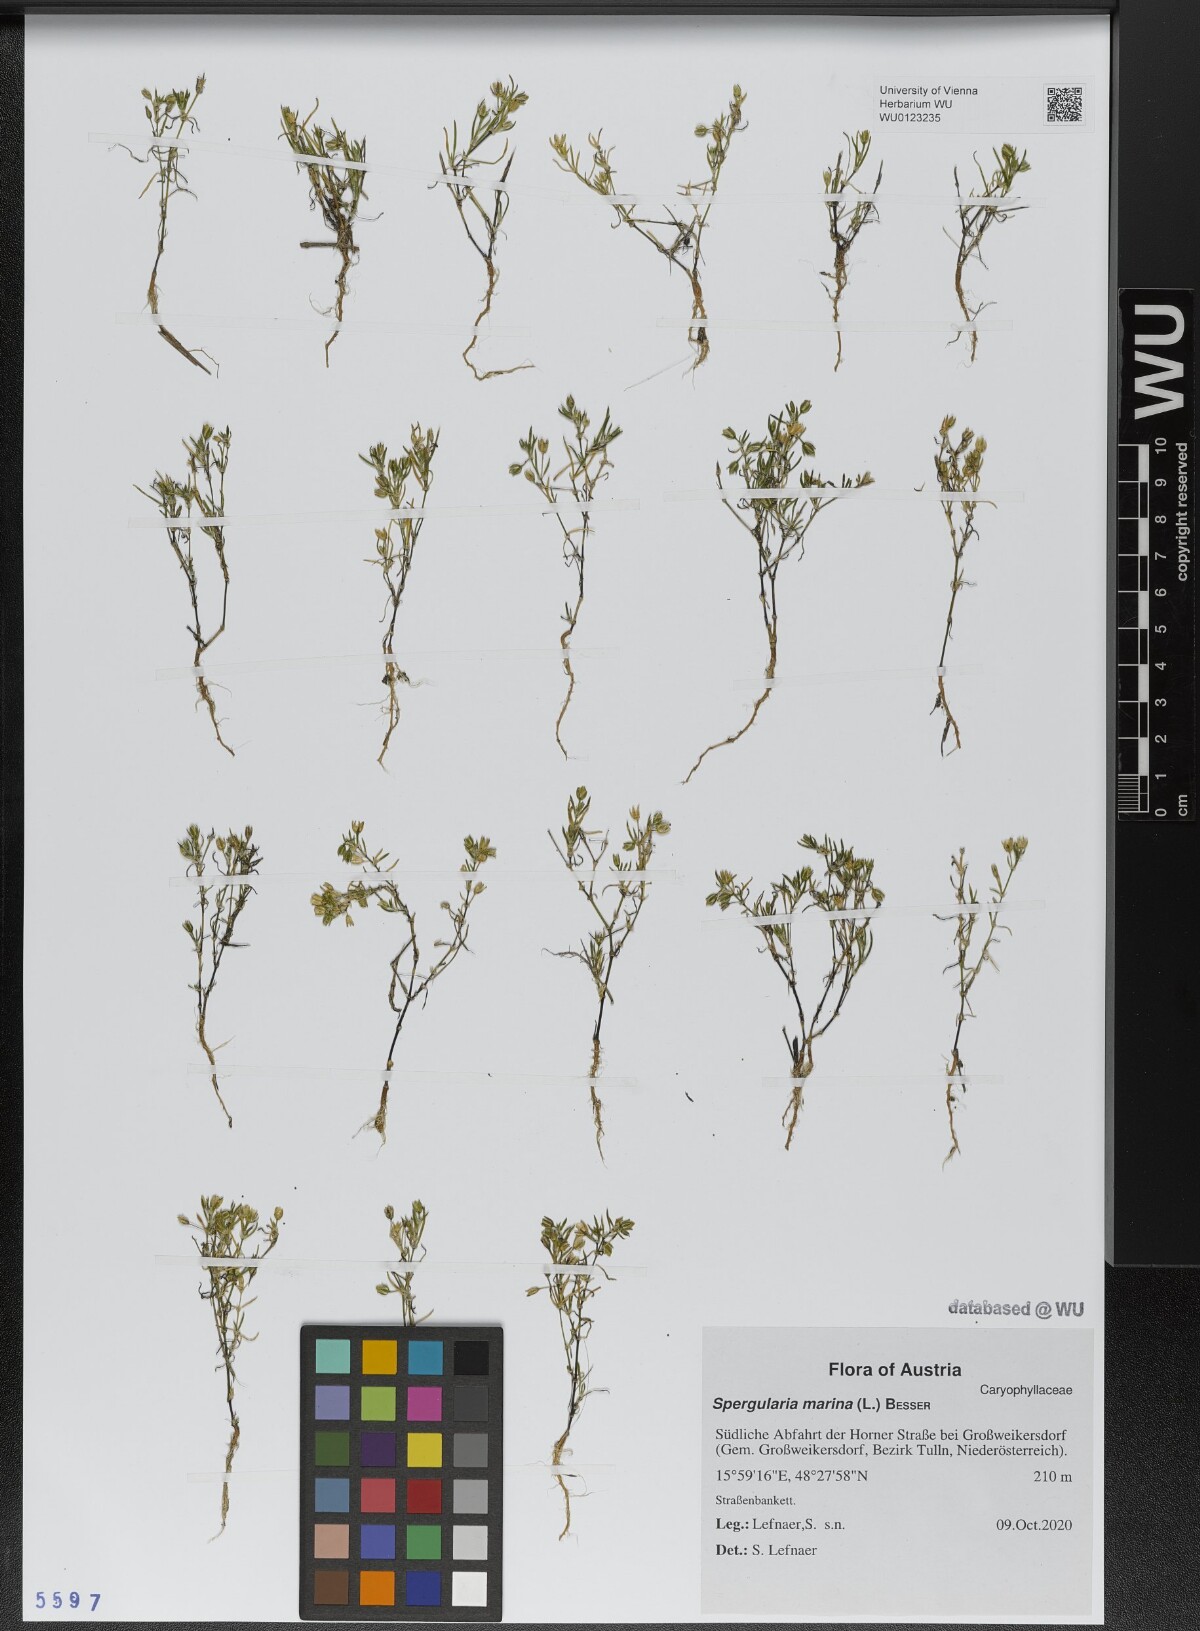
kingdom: Plantae
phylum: Tracheophyta
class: Magnoliopsida
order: Caryophyllales
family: Caryophyllaceae
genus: Spergularia
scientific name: Spergularia marina
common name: Lesser sea-spurrey
